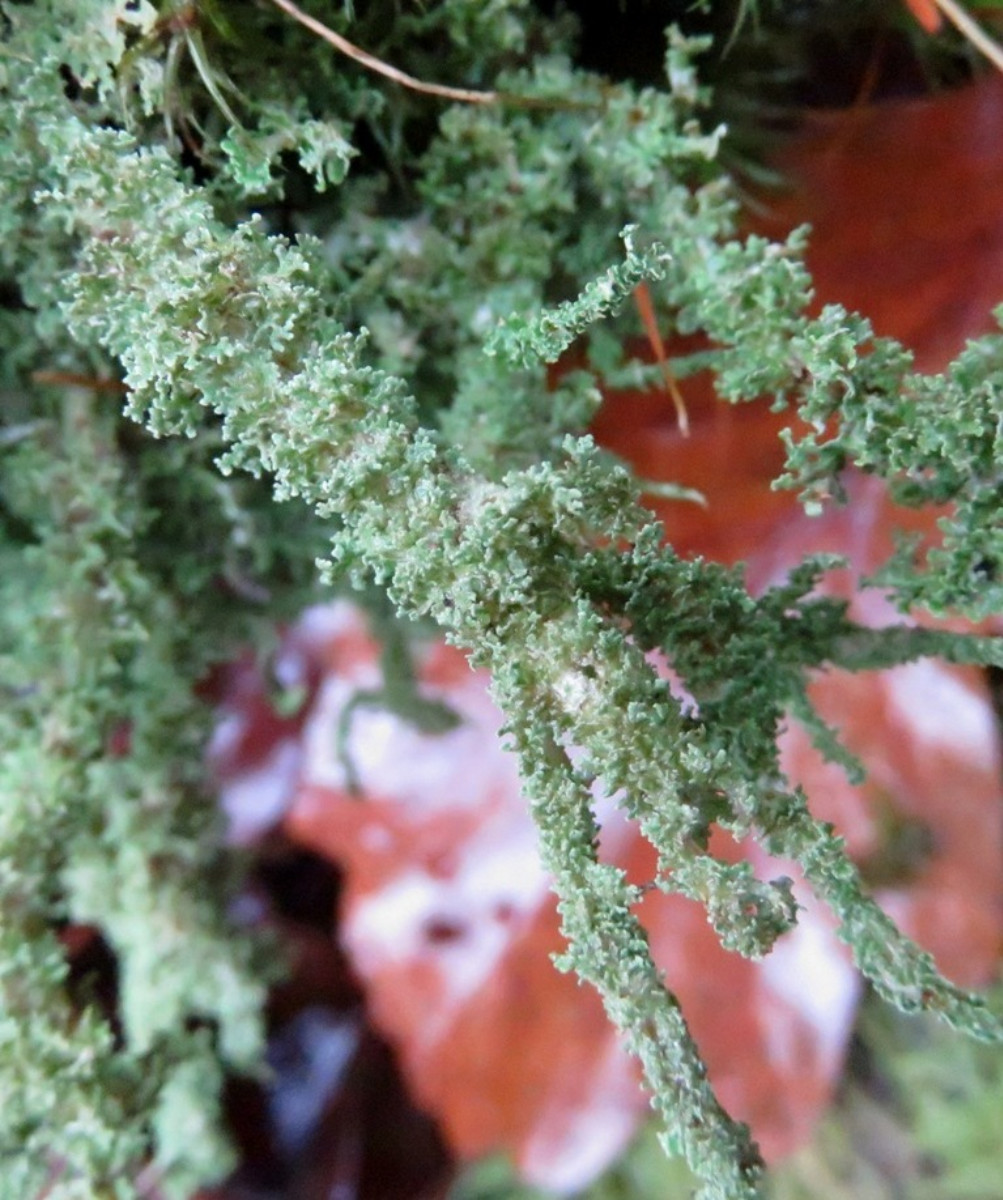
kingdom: Fungi
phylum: Ascomycota
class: Lecanoromycetes
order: Lecanorales
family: Cladoniaceae
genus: Cladonia
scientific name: Cladonia squamosa
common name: skælklædt bægerlav
